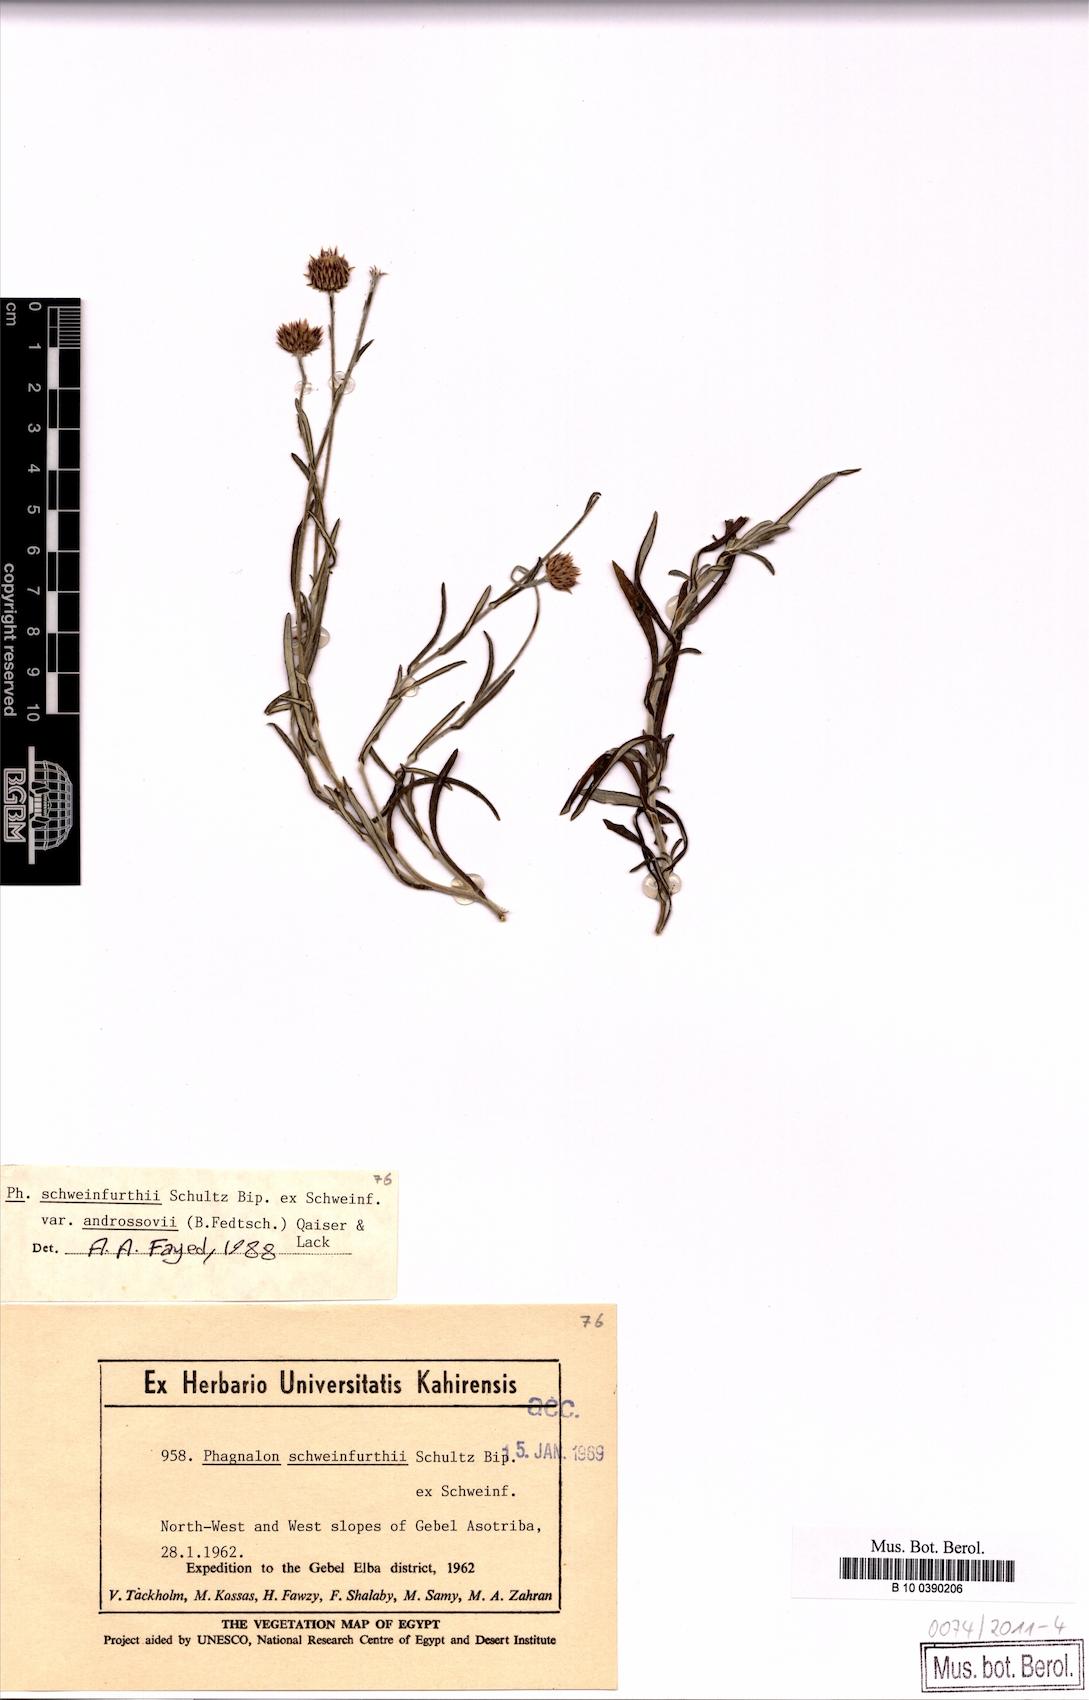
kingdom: Plantae
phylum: Tracheophyta
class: Magnoliopsida
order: Asterales
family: Asteraceae
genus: Phagnalon
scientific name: Phagnalon schweinfurthii
